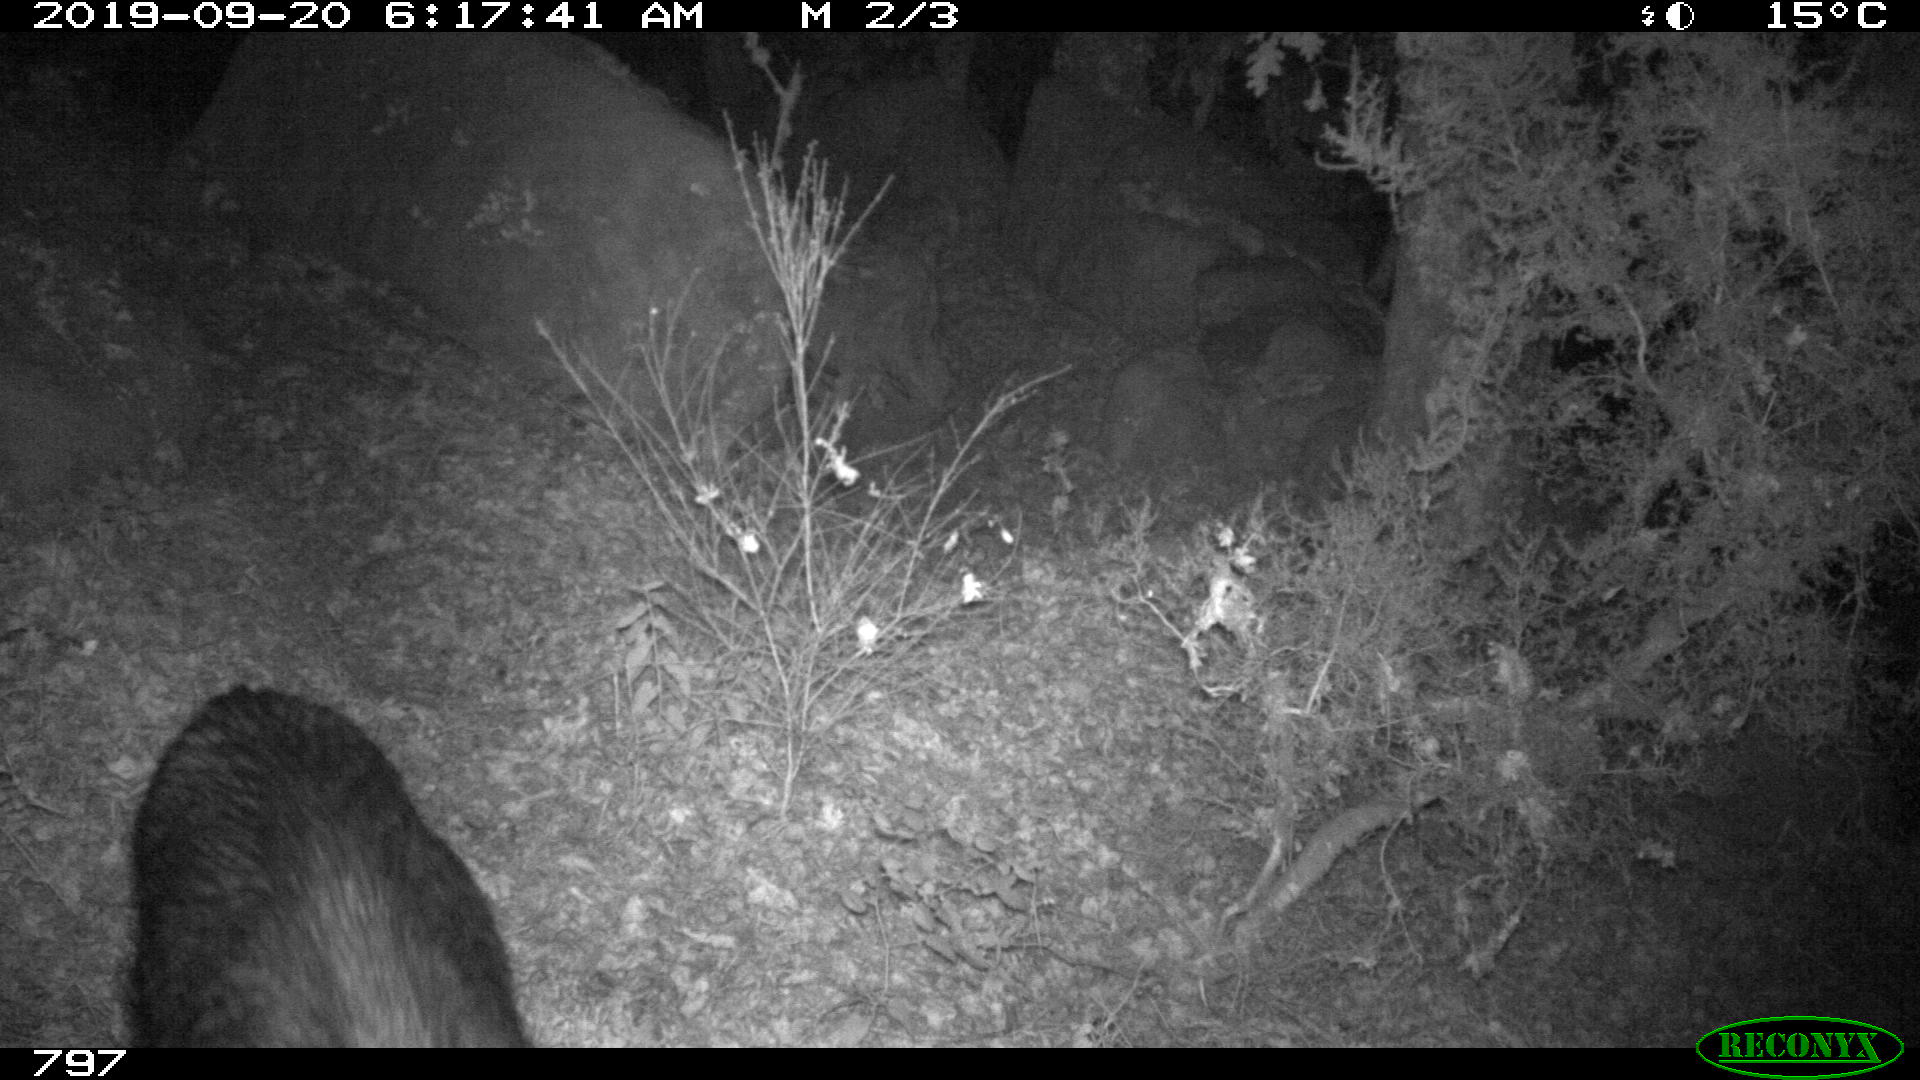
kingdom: Animalia
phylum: Chordata
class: Mammalia
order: Artiodactyla
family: Suidae
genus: Sus
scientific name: Sus scrofa
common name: Wild boar
